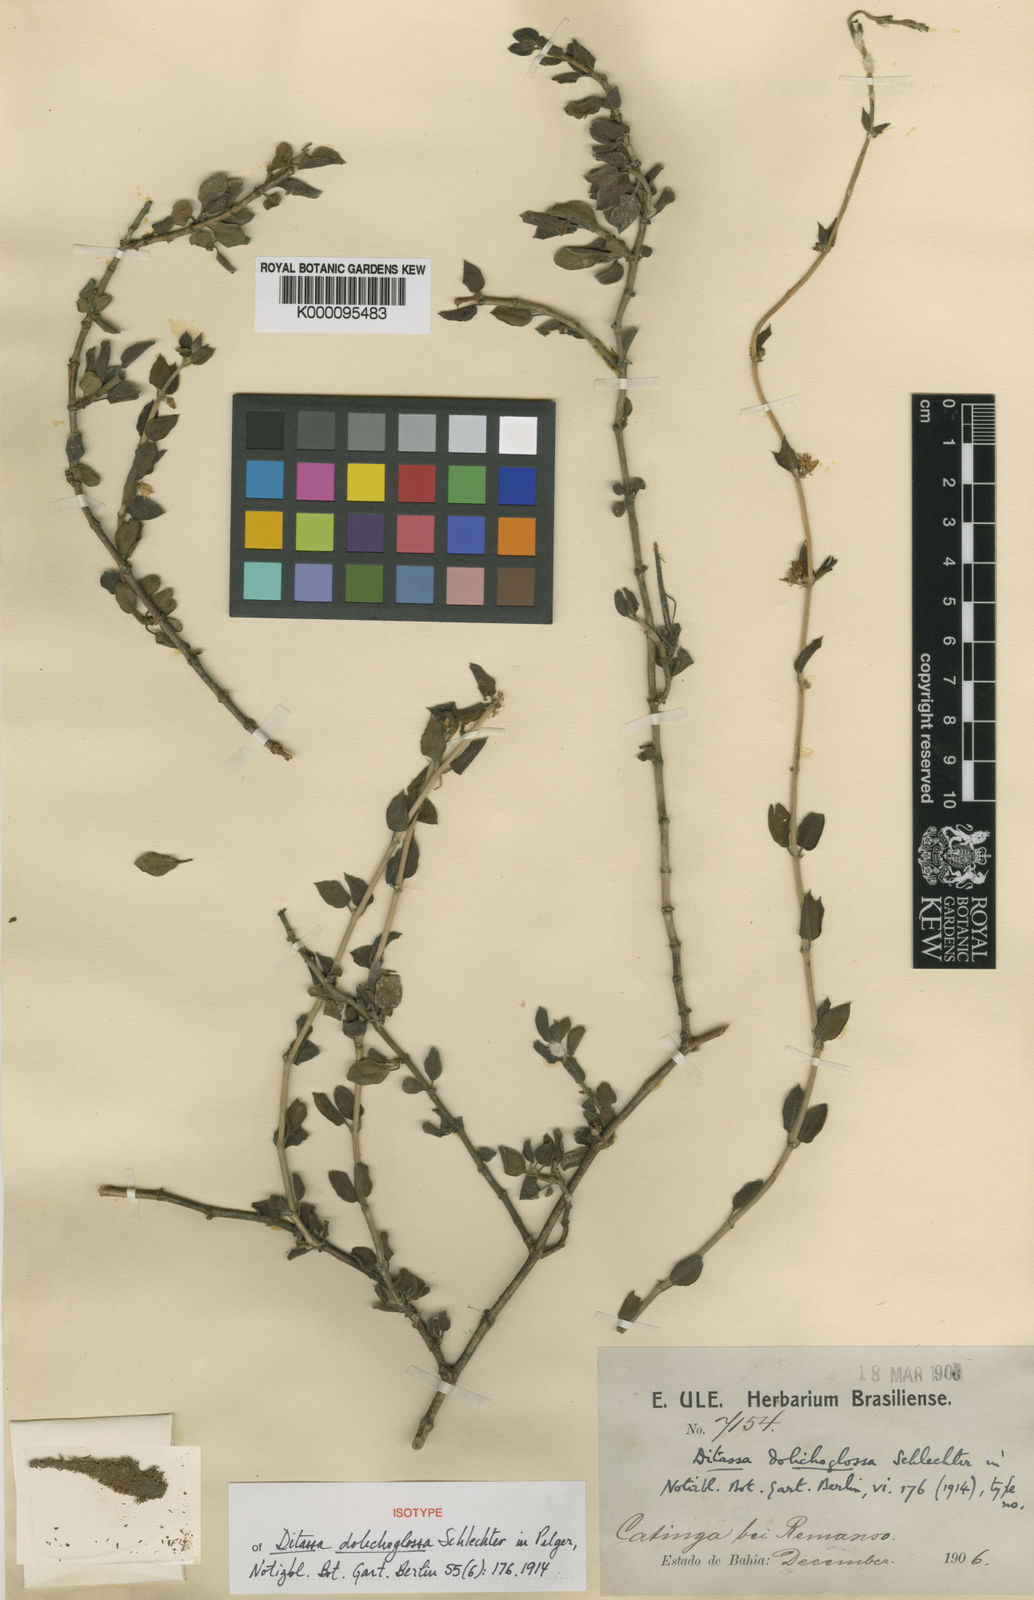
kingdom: Plantae
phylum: Tracheophyta
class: Magnoliopsida
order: Gentianales
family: Apocynaceae
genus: Ditassa
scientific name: Ditassa dolichoglossa
